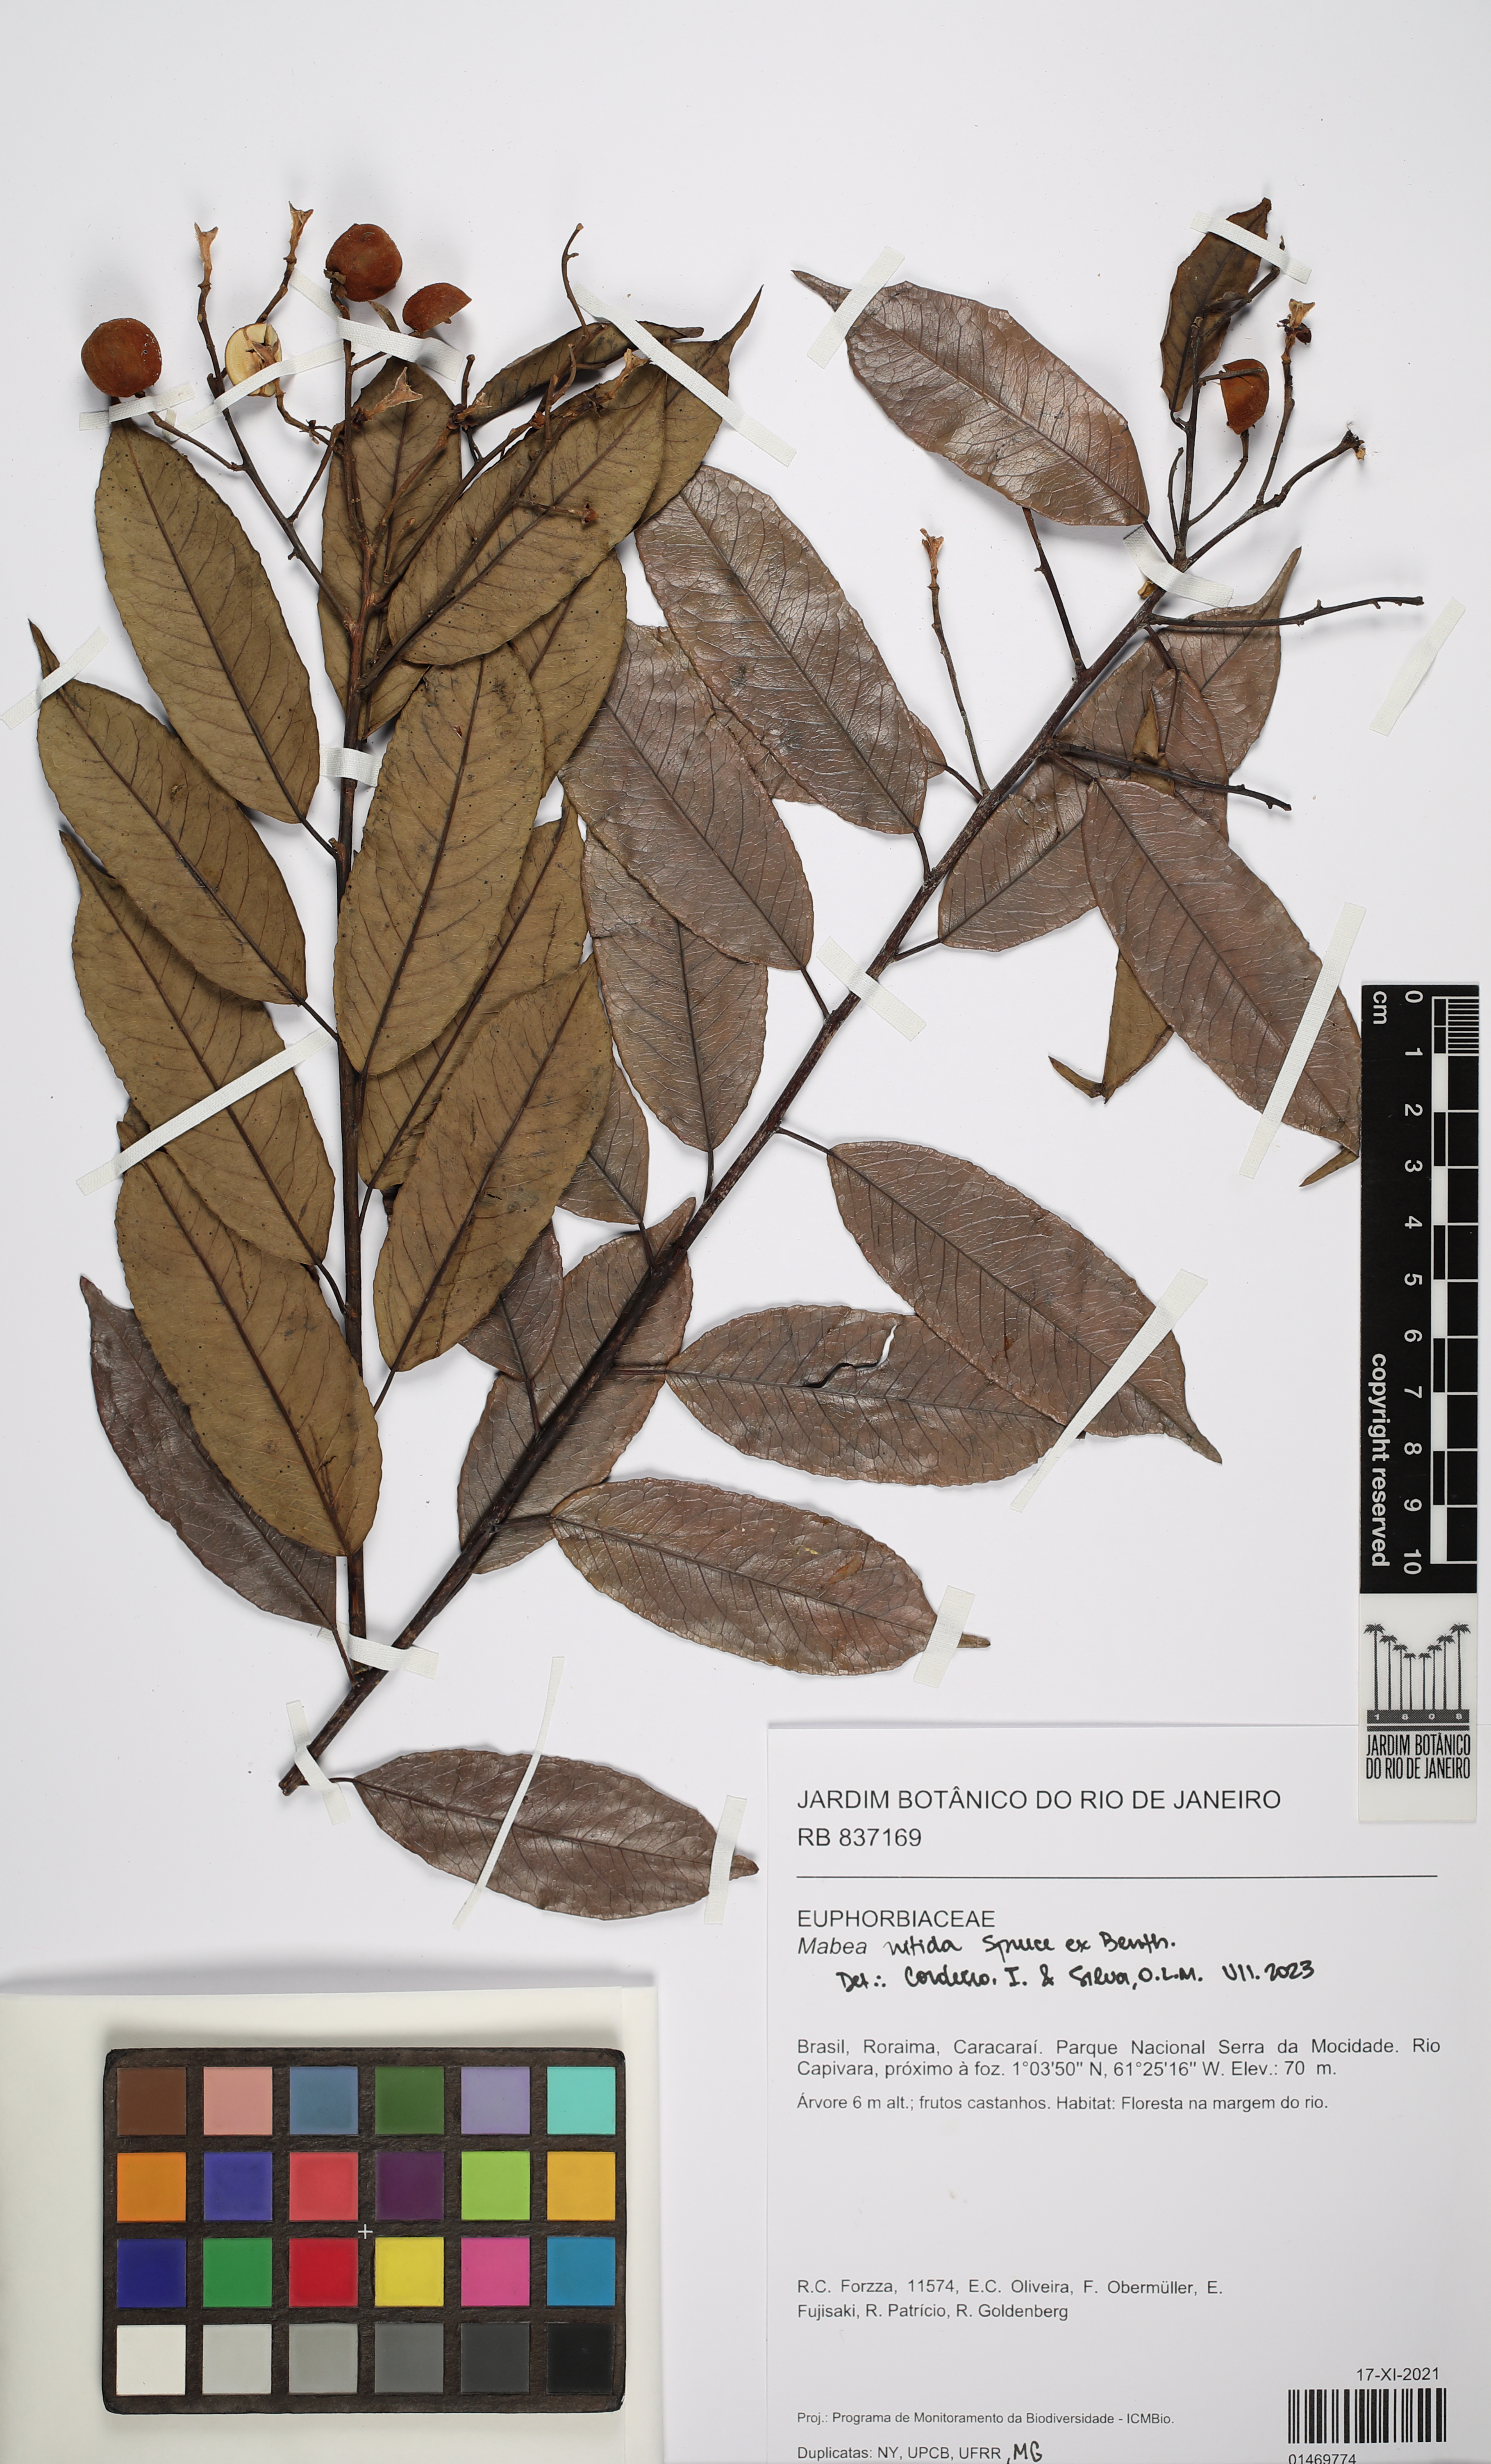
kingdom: Plantae
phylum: Tracheophyta
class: Magnoliopsida
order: Malpighiales
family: Euphorbiaceae
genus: Mabea
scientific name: Mabea nitida
